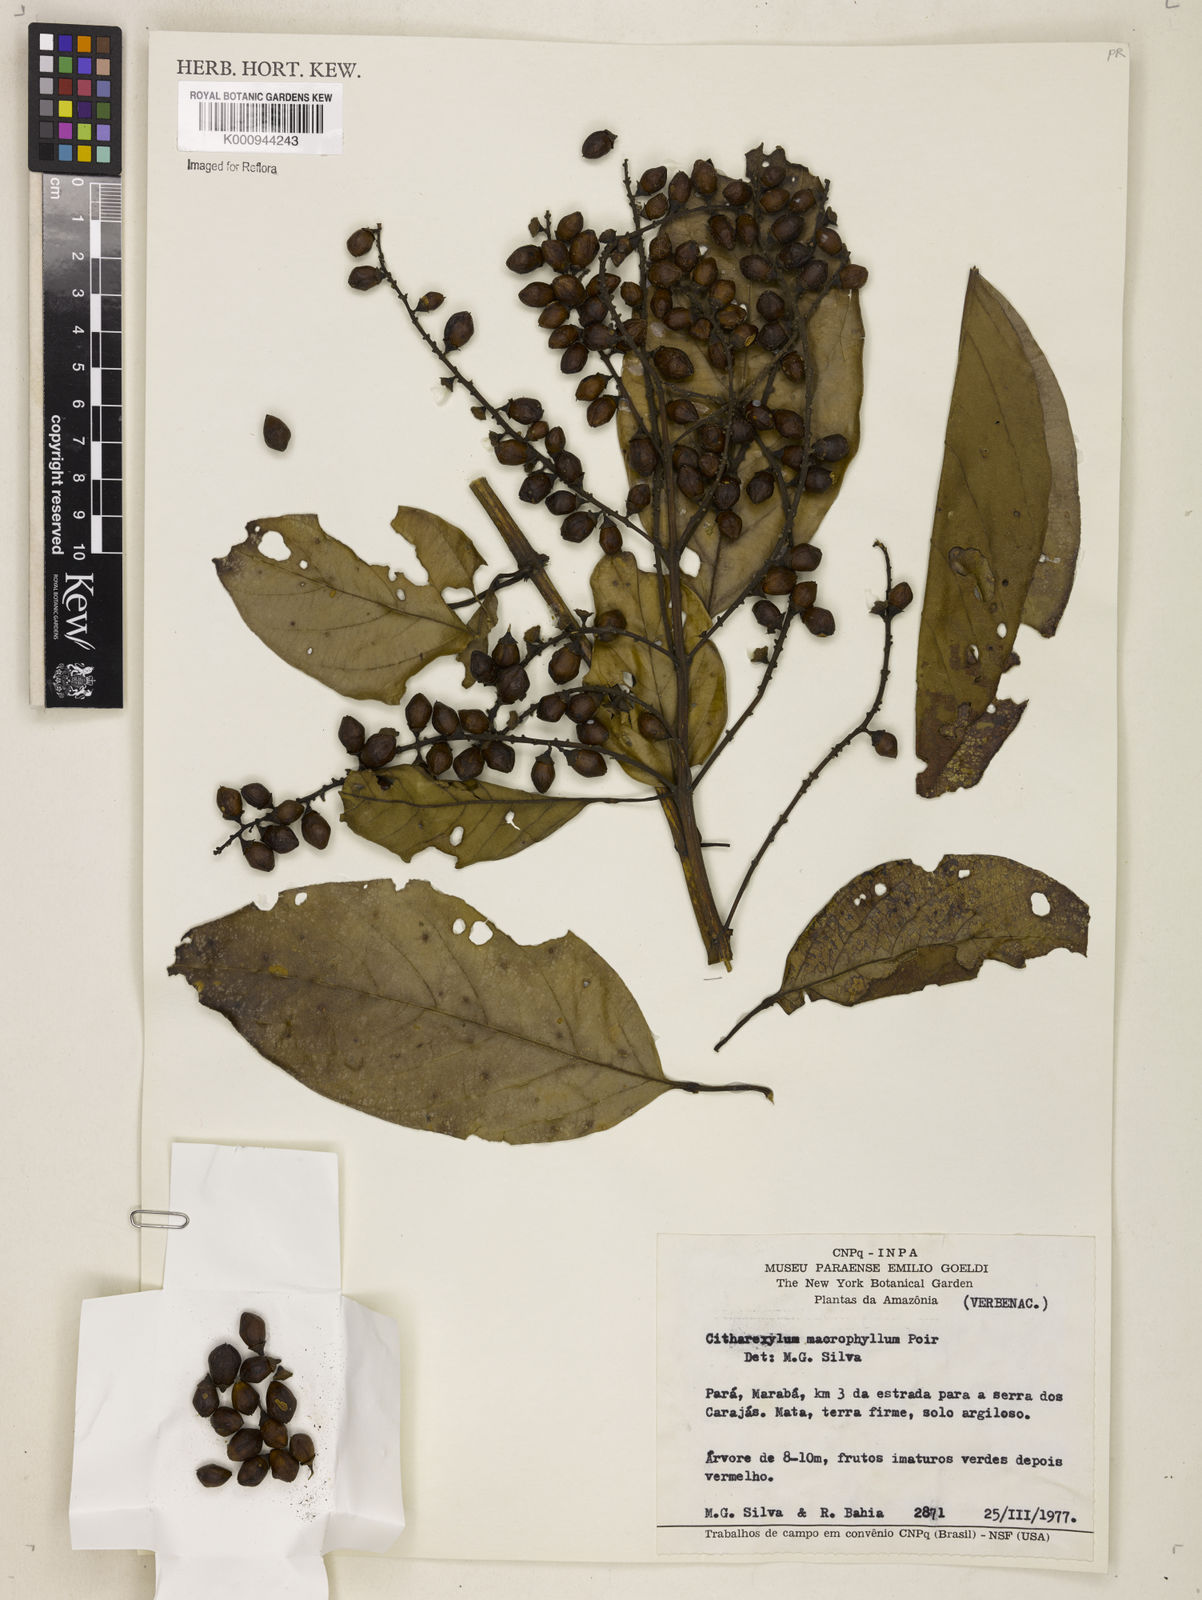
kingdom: Plantae
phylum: Tracheophyta
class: Magnoliopsida
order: Lamiales
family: Verbenaceae
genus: Citharexylum
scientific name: Citharexylum spinosum
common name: Fiddlewood
